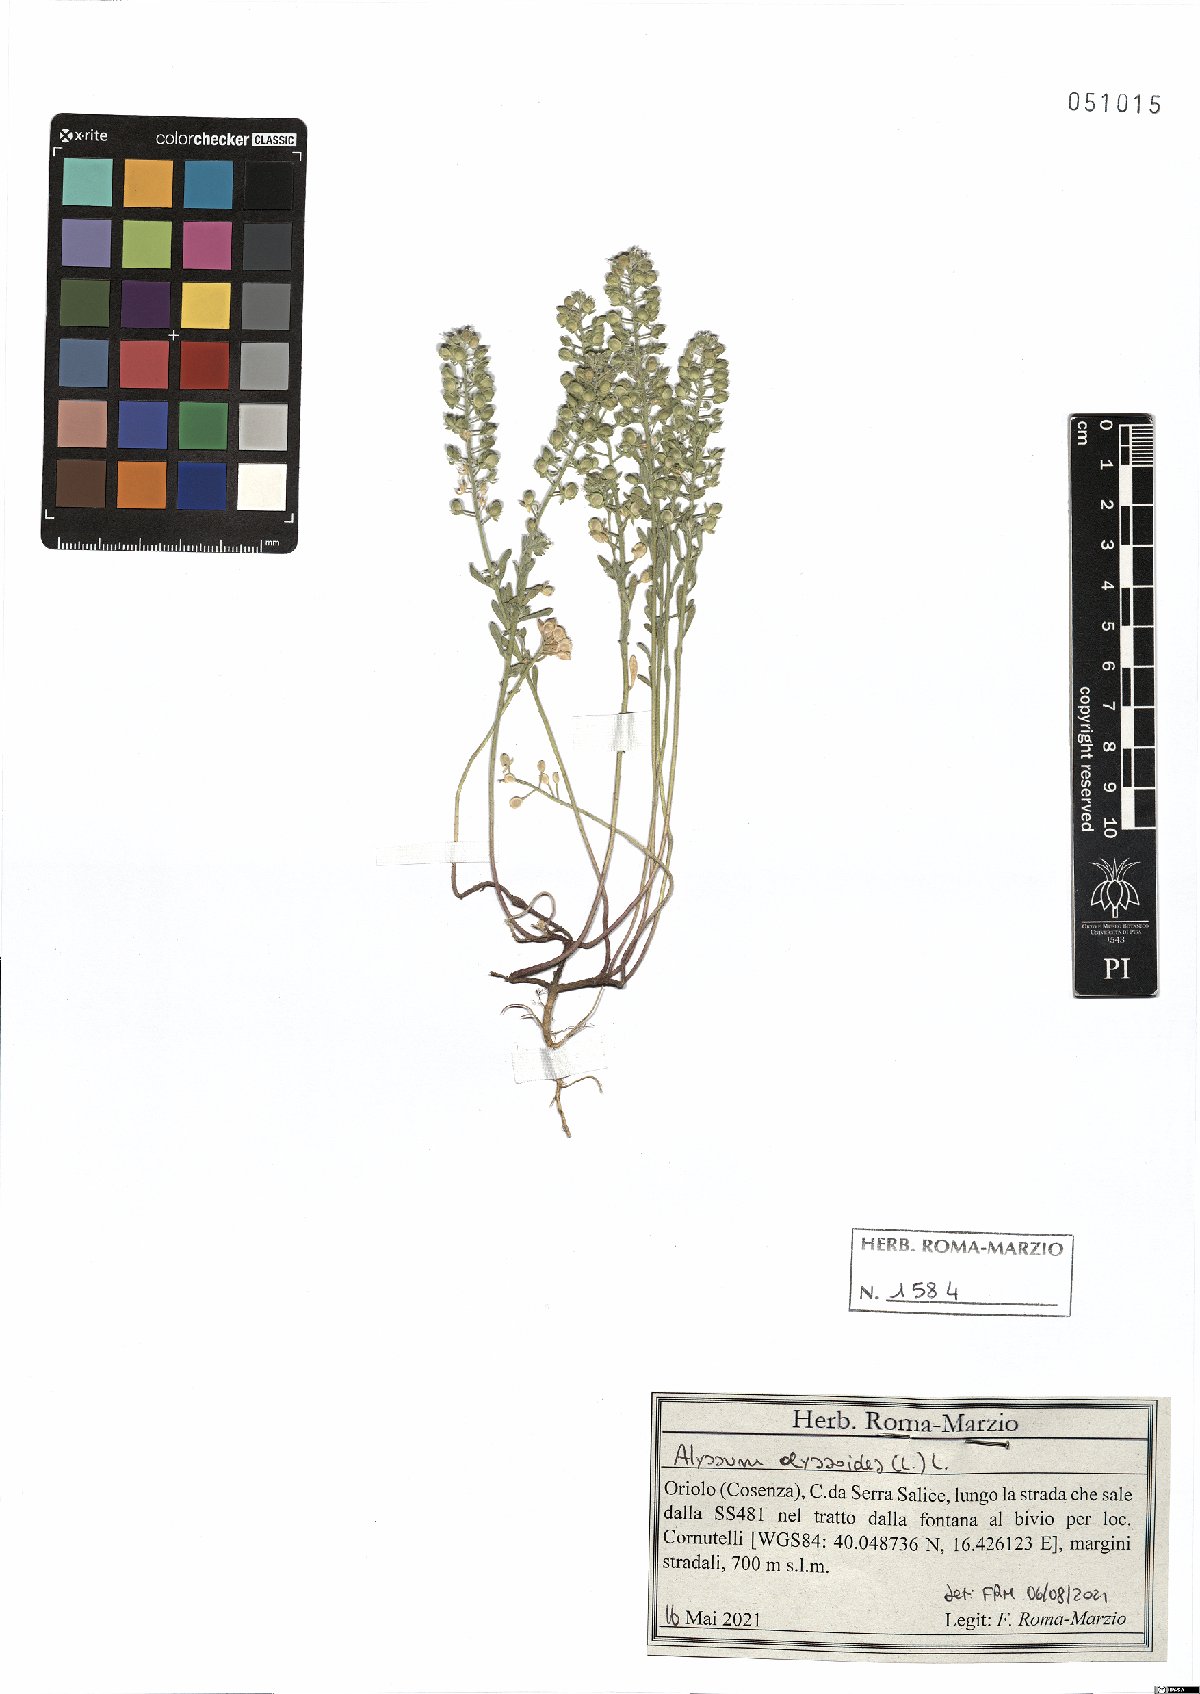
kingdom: Plantae
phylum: Tracheophyta
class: Magnoliopsida
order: Brassicales
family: Brassicaceae
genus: Alyssum
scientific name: Alyssum alyssoides
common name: Small alison
